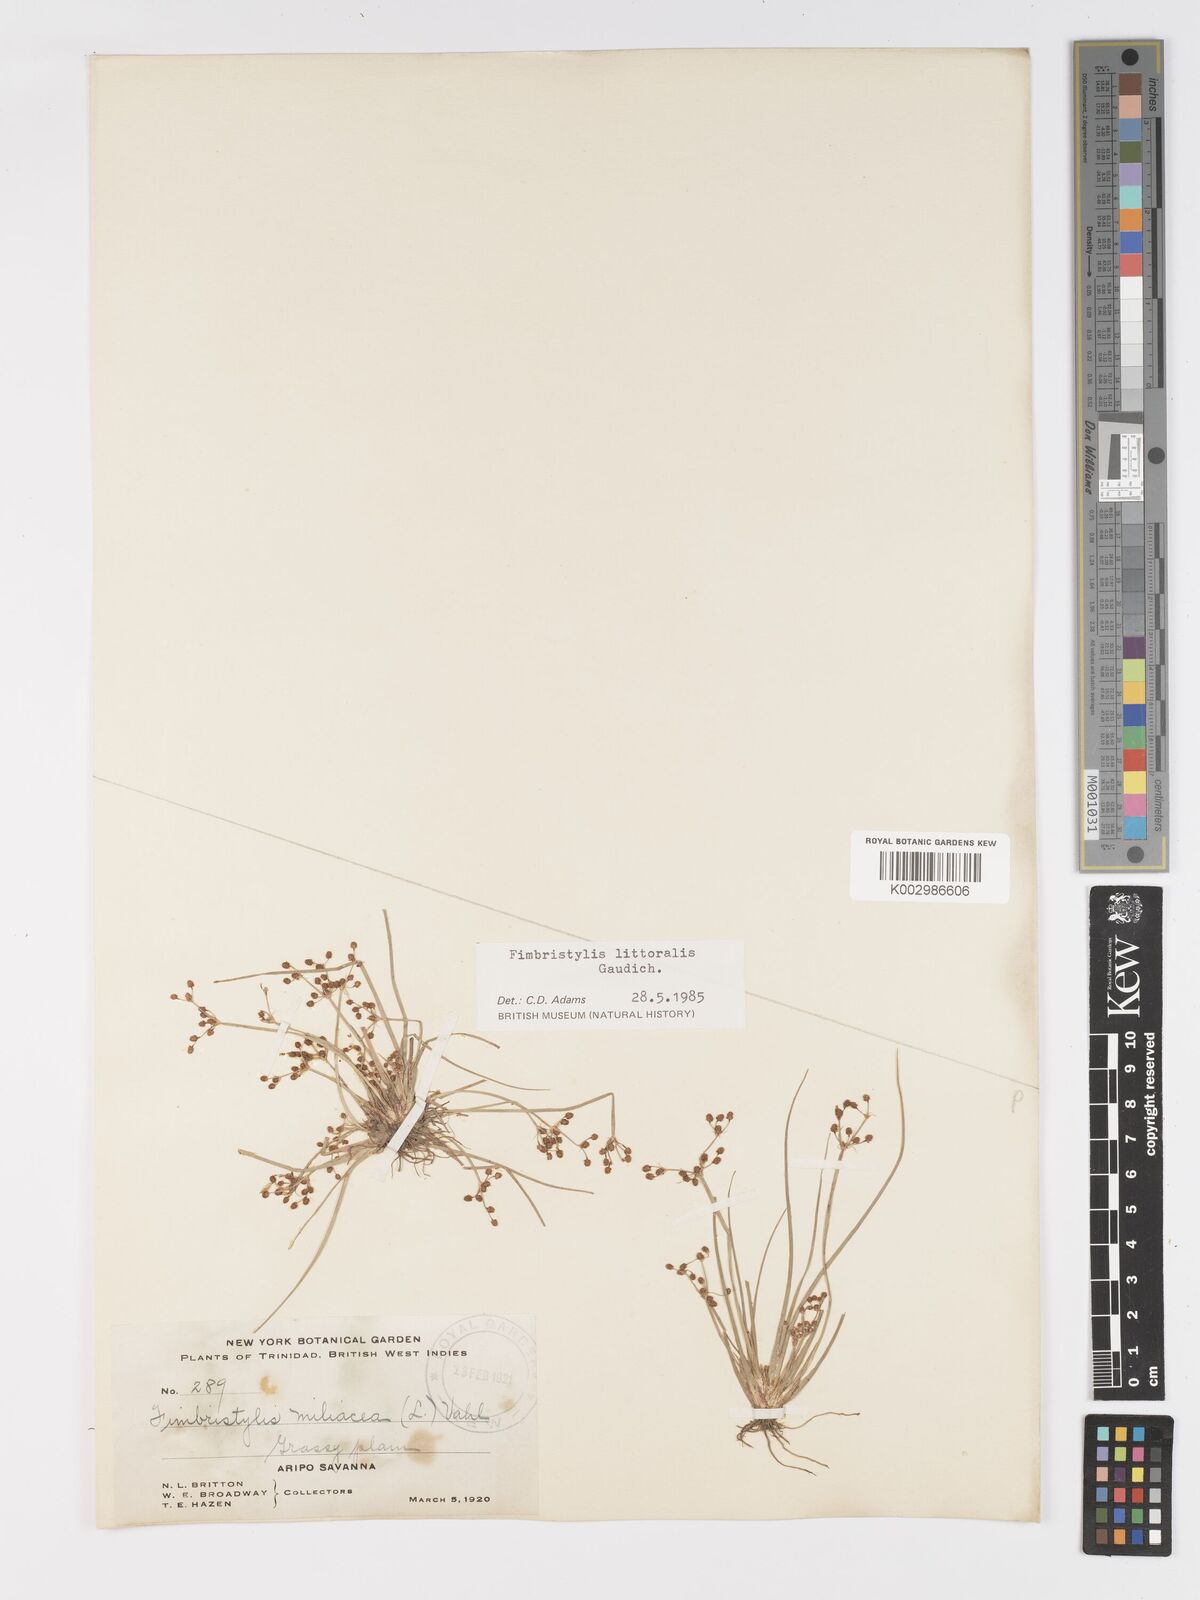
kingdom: Plantae
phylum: Tracheophyta
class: Liliopsida
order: Poales
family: Cyperaceae
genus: Fimbristylis
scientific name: Fimbristylis littoralis
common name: Fimbry
